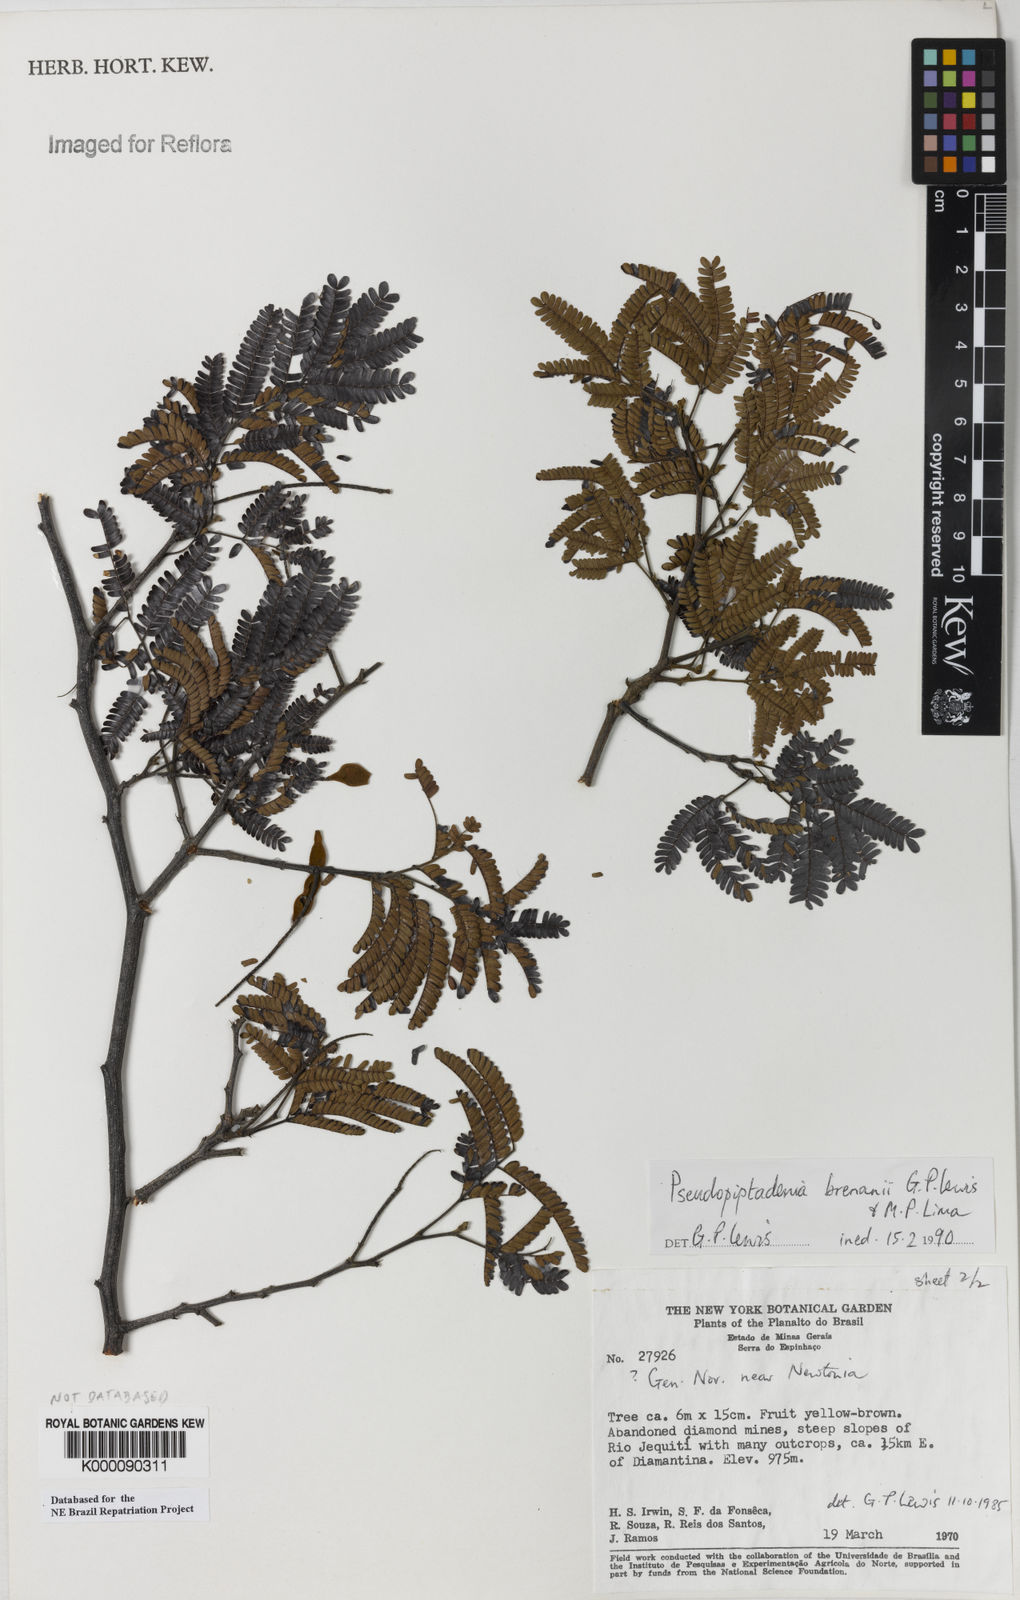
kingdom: Plantae
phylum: Tracheophyta
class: Magnoliopsida
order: Fabales
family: Fabaceae
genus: Pseudopiptadenia
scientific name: Pseudopiptadenia brenanii
